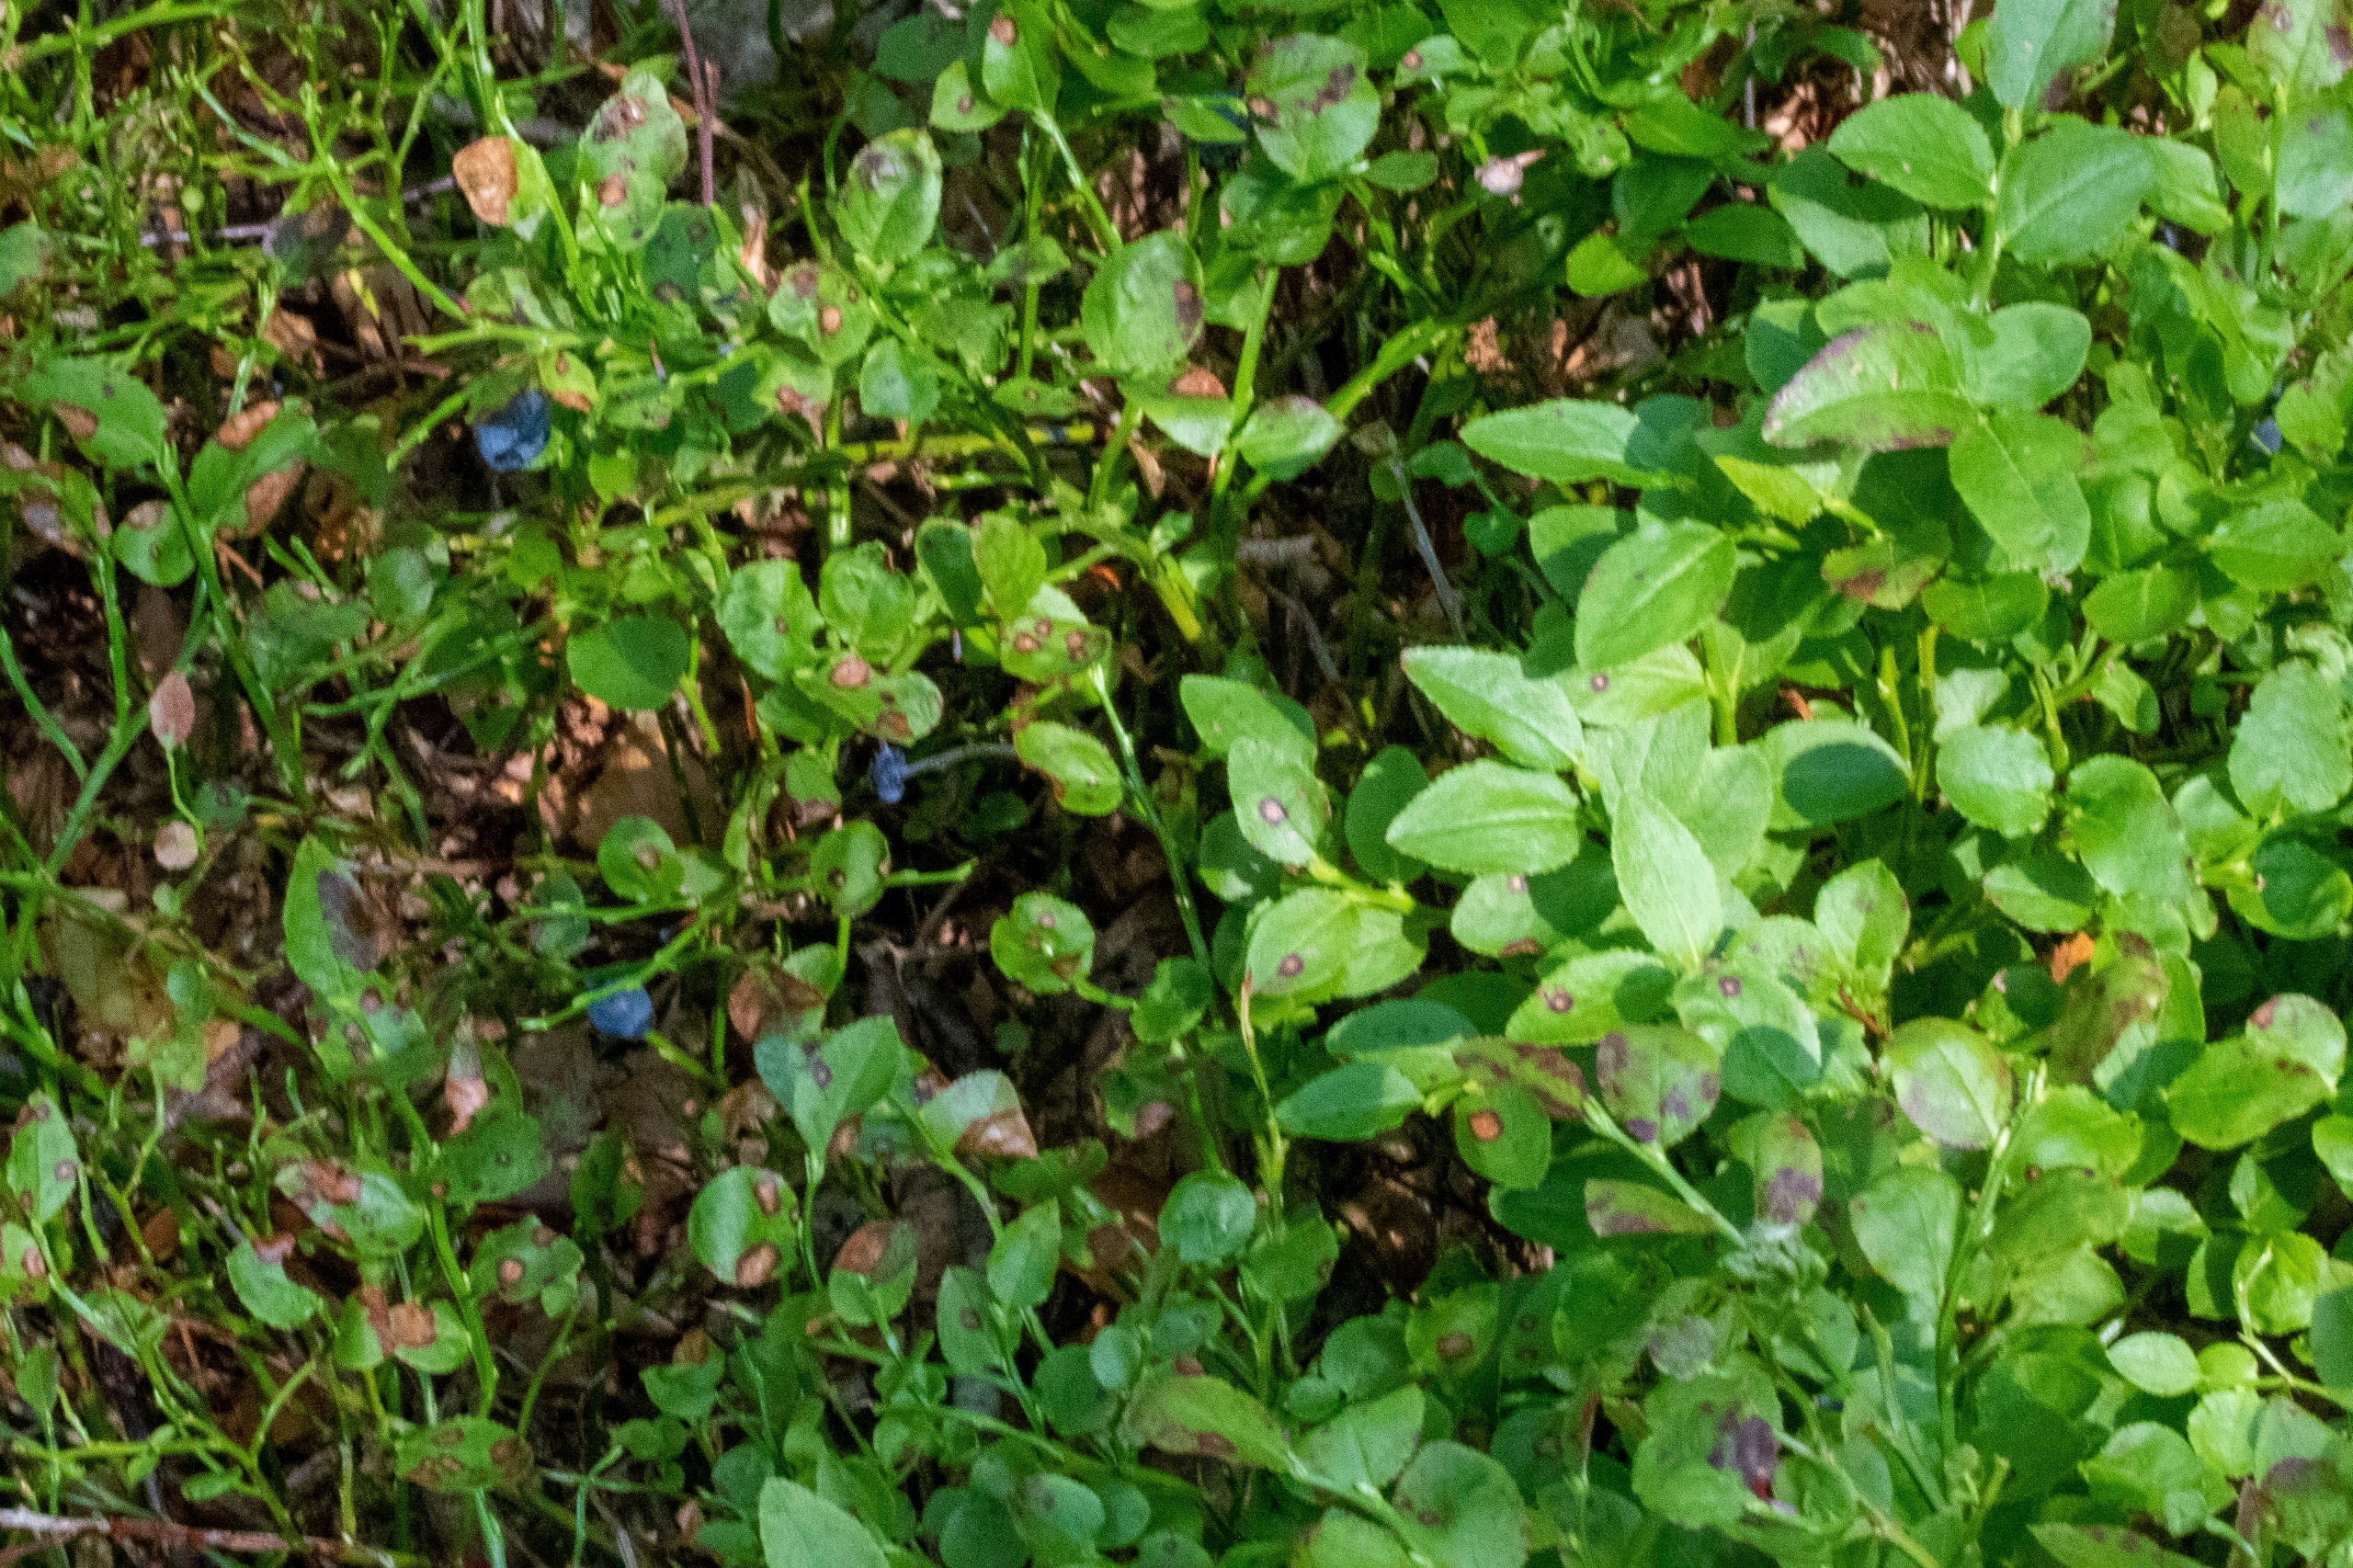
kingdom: Plantae
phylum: Tracheophyta
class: Magnoliopsida
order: Ericales
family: Ericaceae
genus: Vaccinium
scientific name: Vaccinium myrtillus
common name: Blåbær
